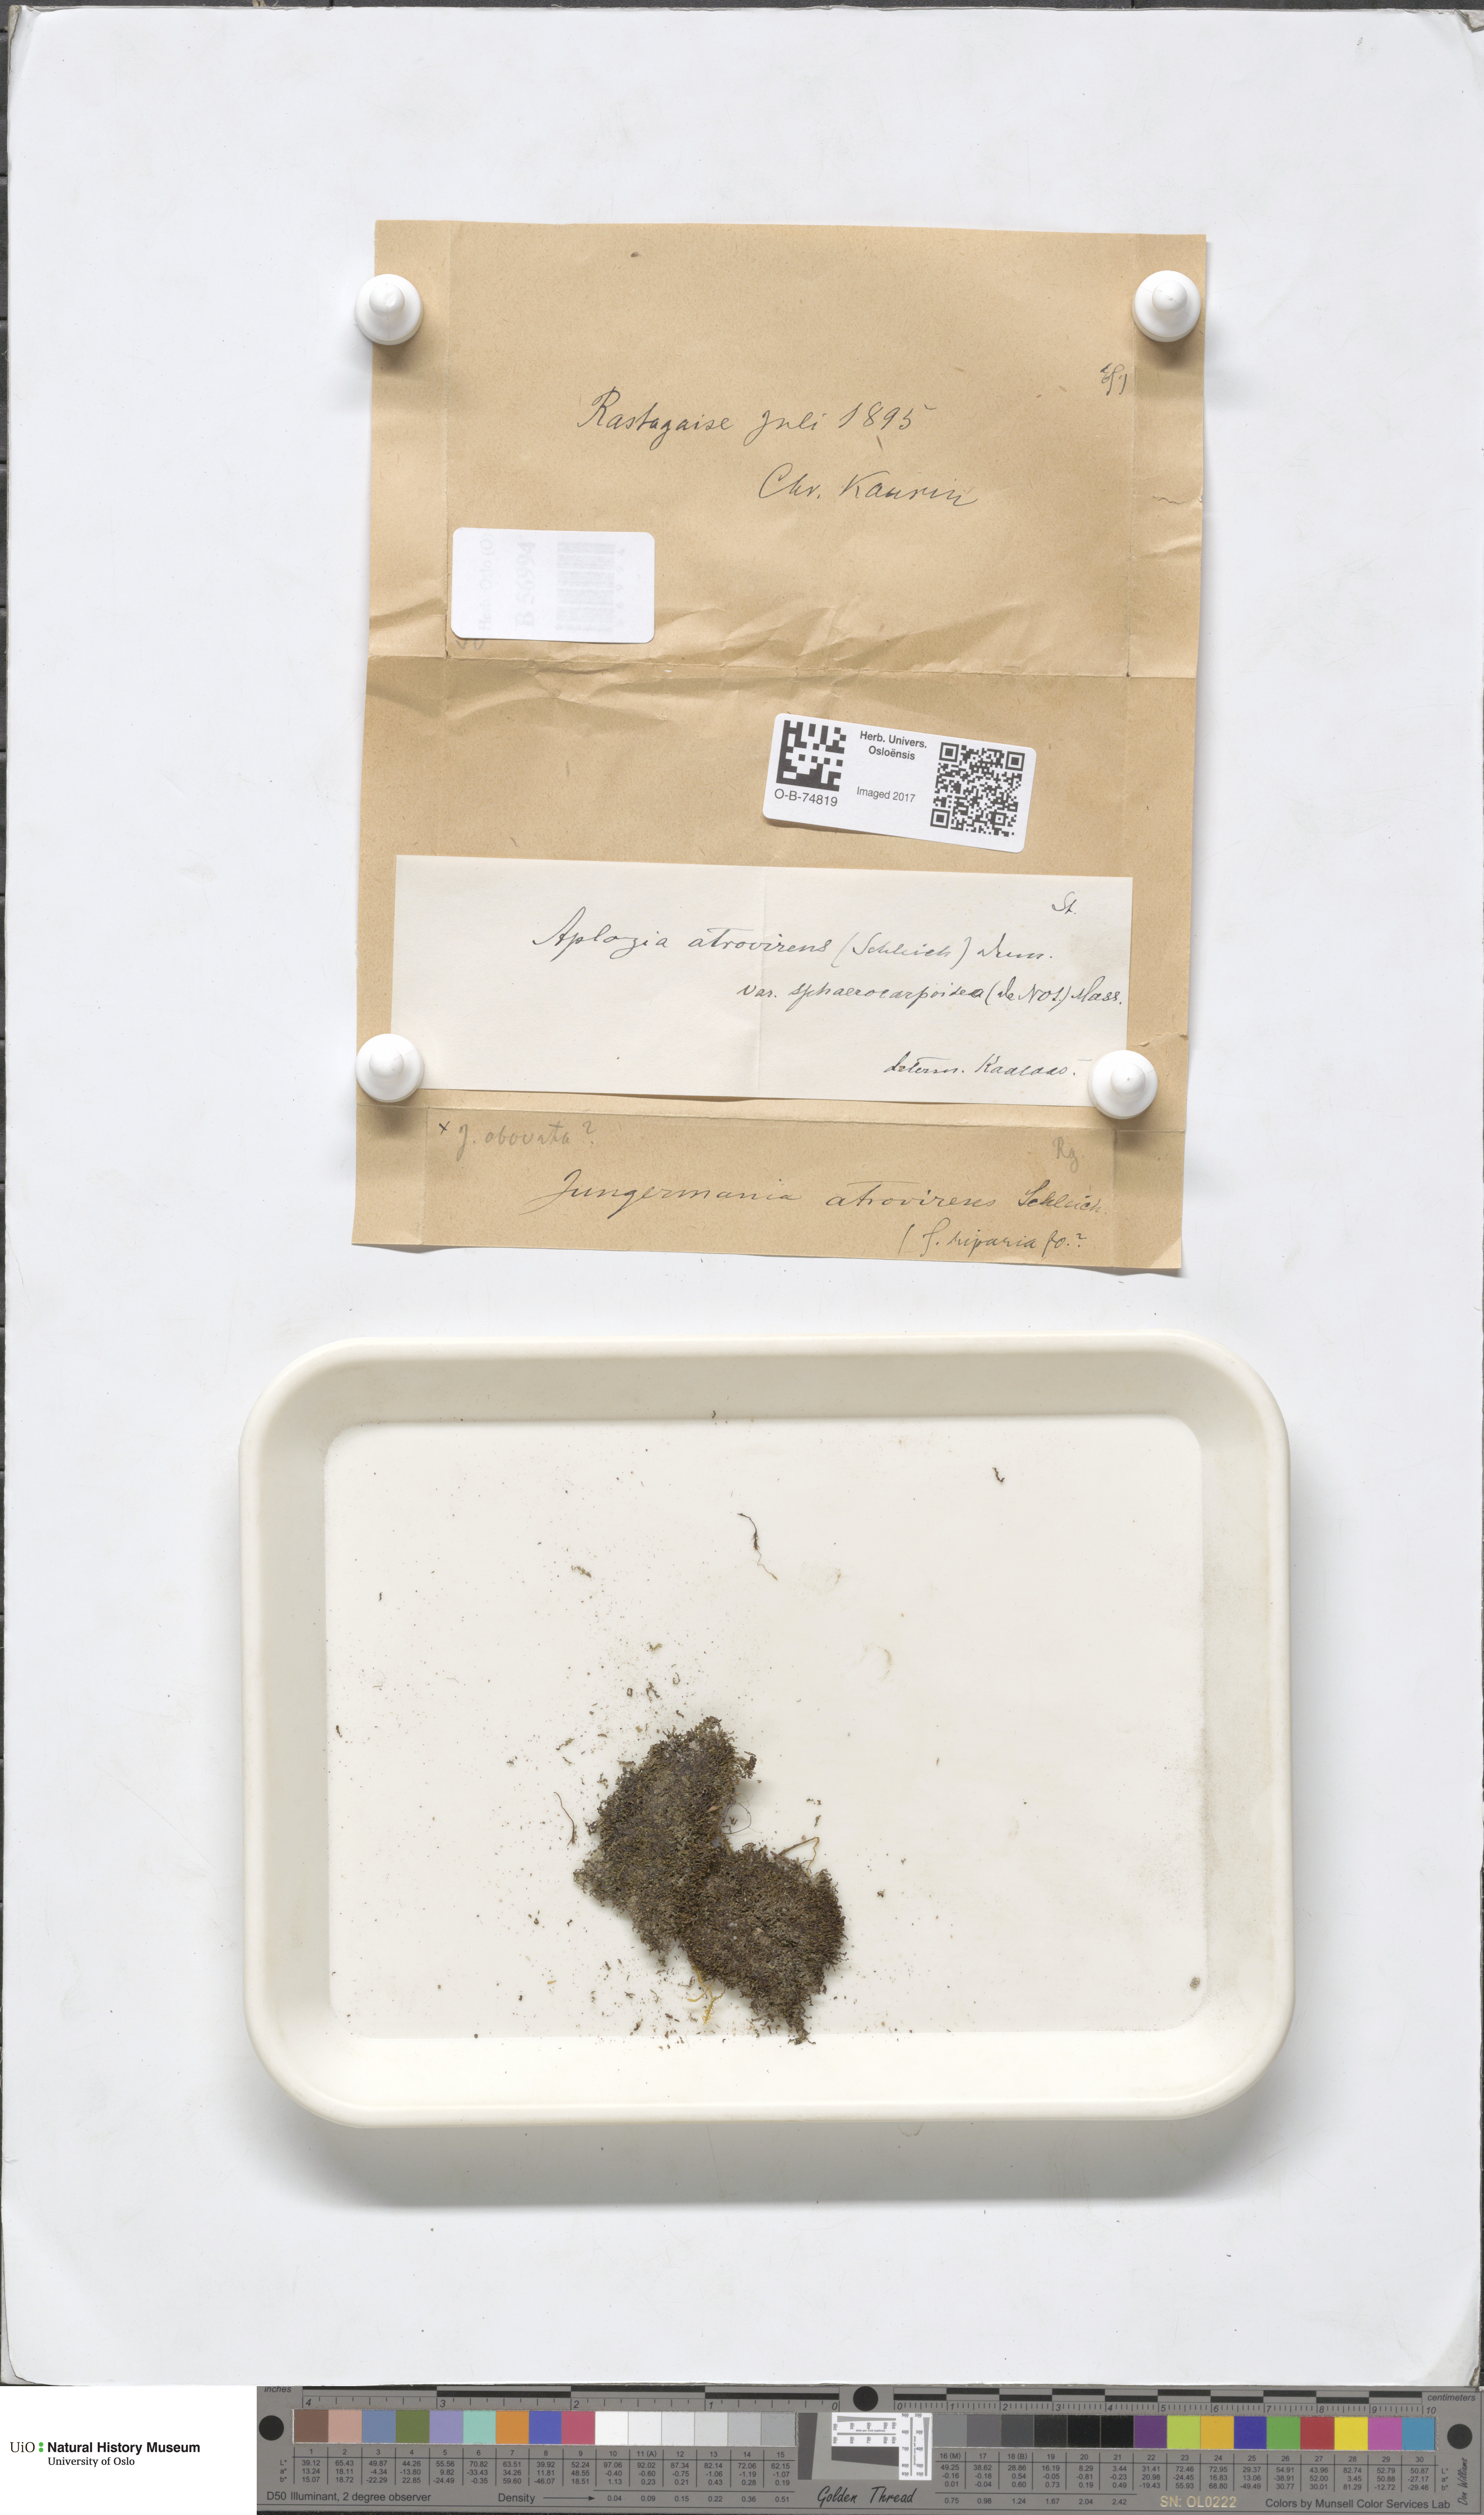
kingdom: Plantae
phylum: Marchantiophyta
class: Jungermanniopsida
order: Jungermanniales
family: Jungermanniaceae
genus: Jungermannia
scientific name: Jungermannia atrovirens
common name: Dark-green flapwort
